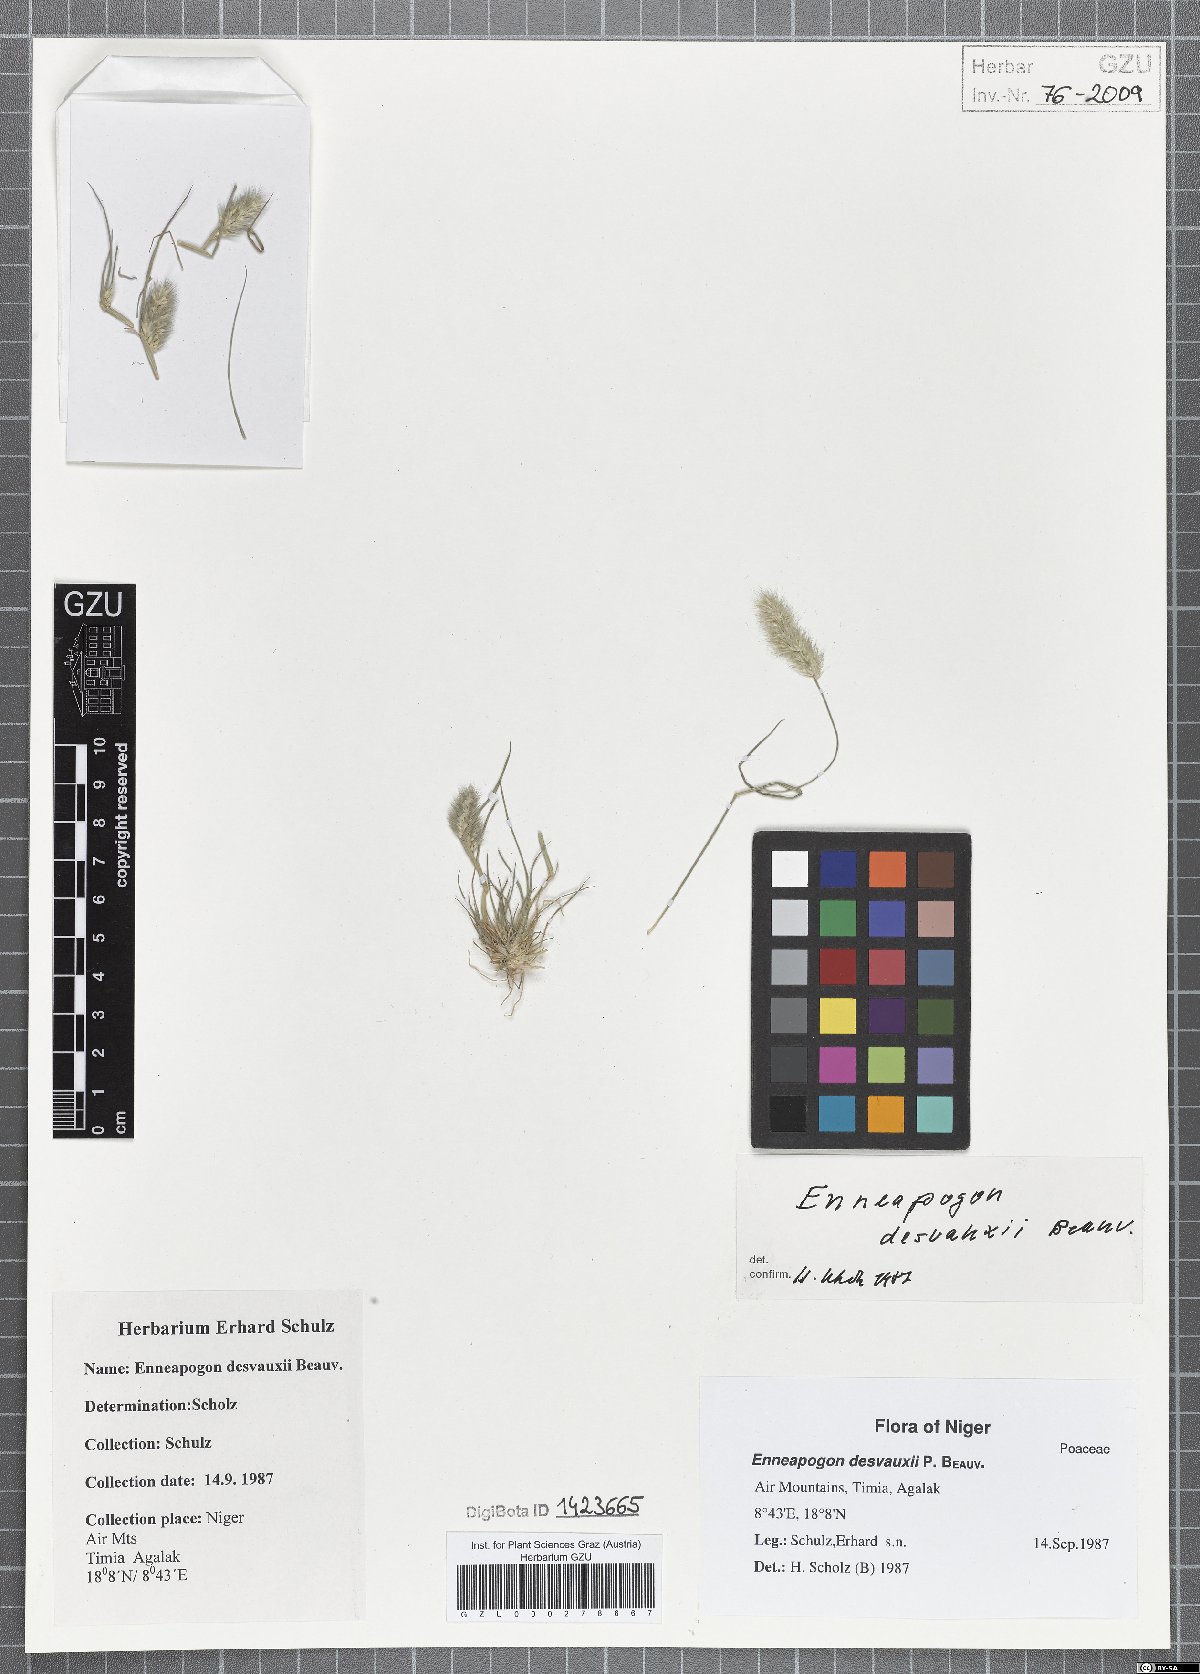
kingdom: Plantae
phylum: Tracheophyta
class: Liliopsida
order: Poales
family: Poaceae
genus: Enneapogon
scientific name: Enneapogon desvauxii
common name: Feather pappus grass
